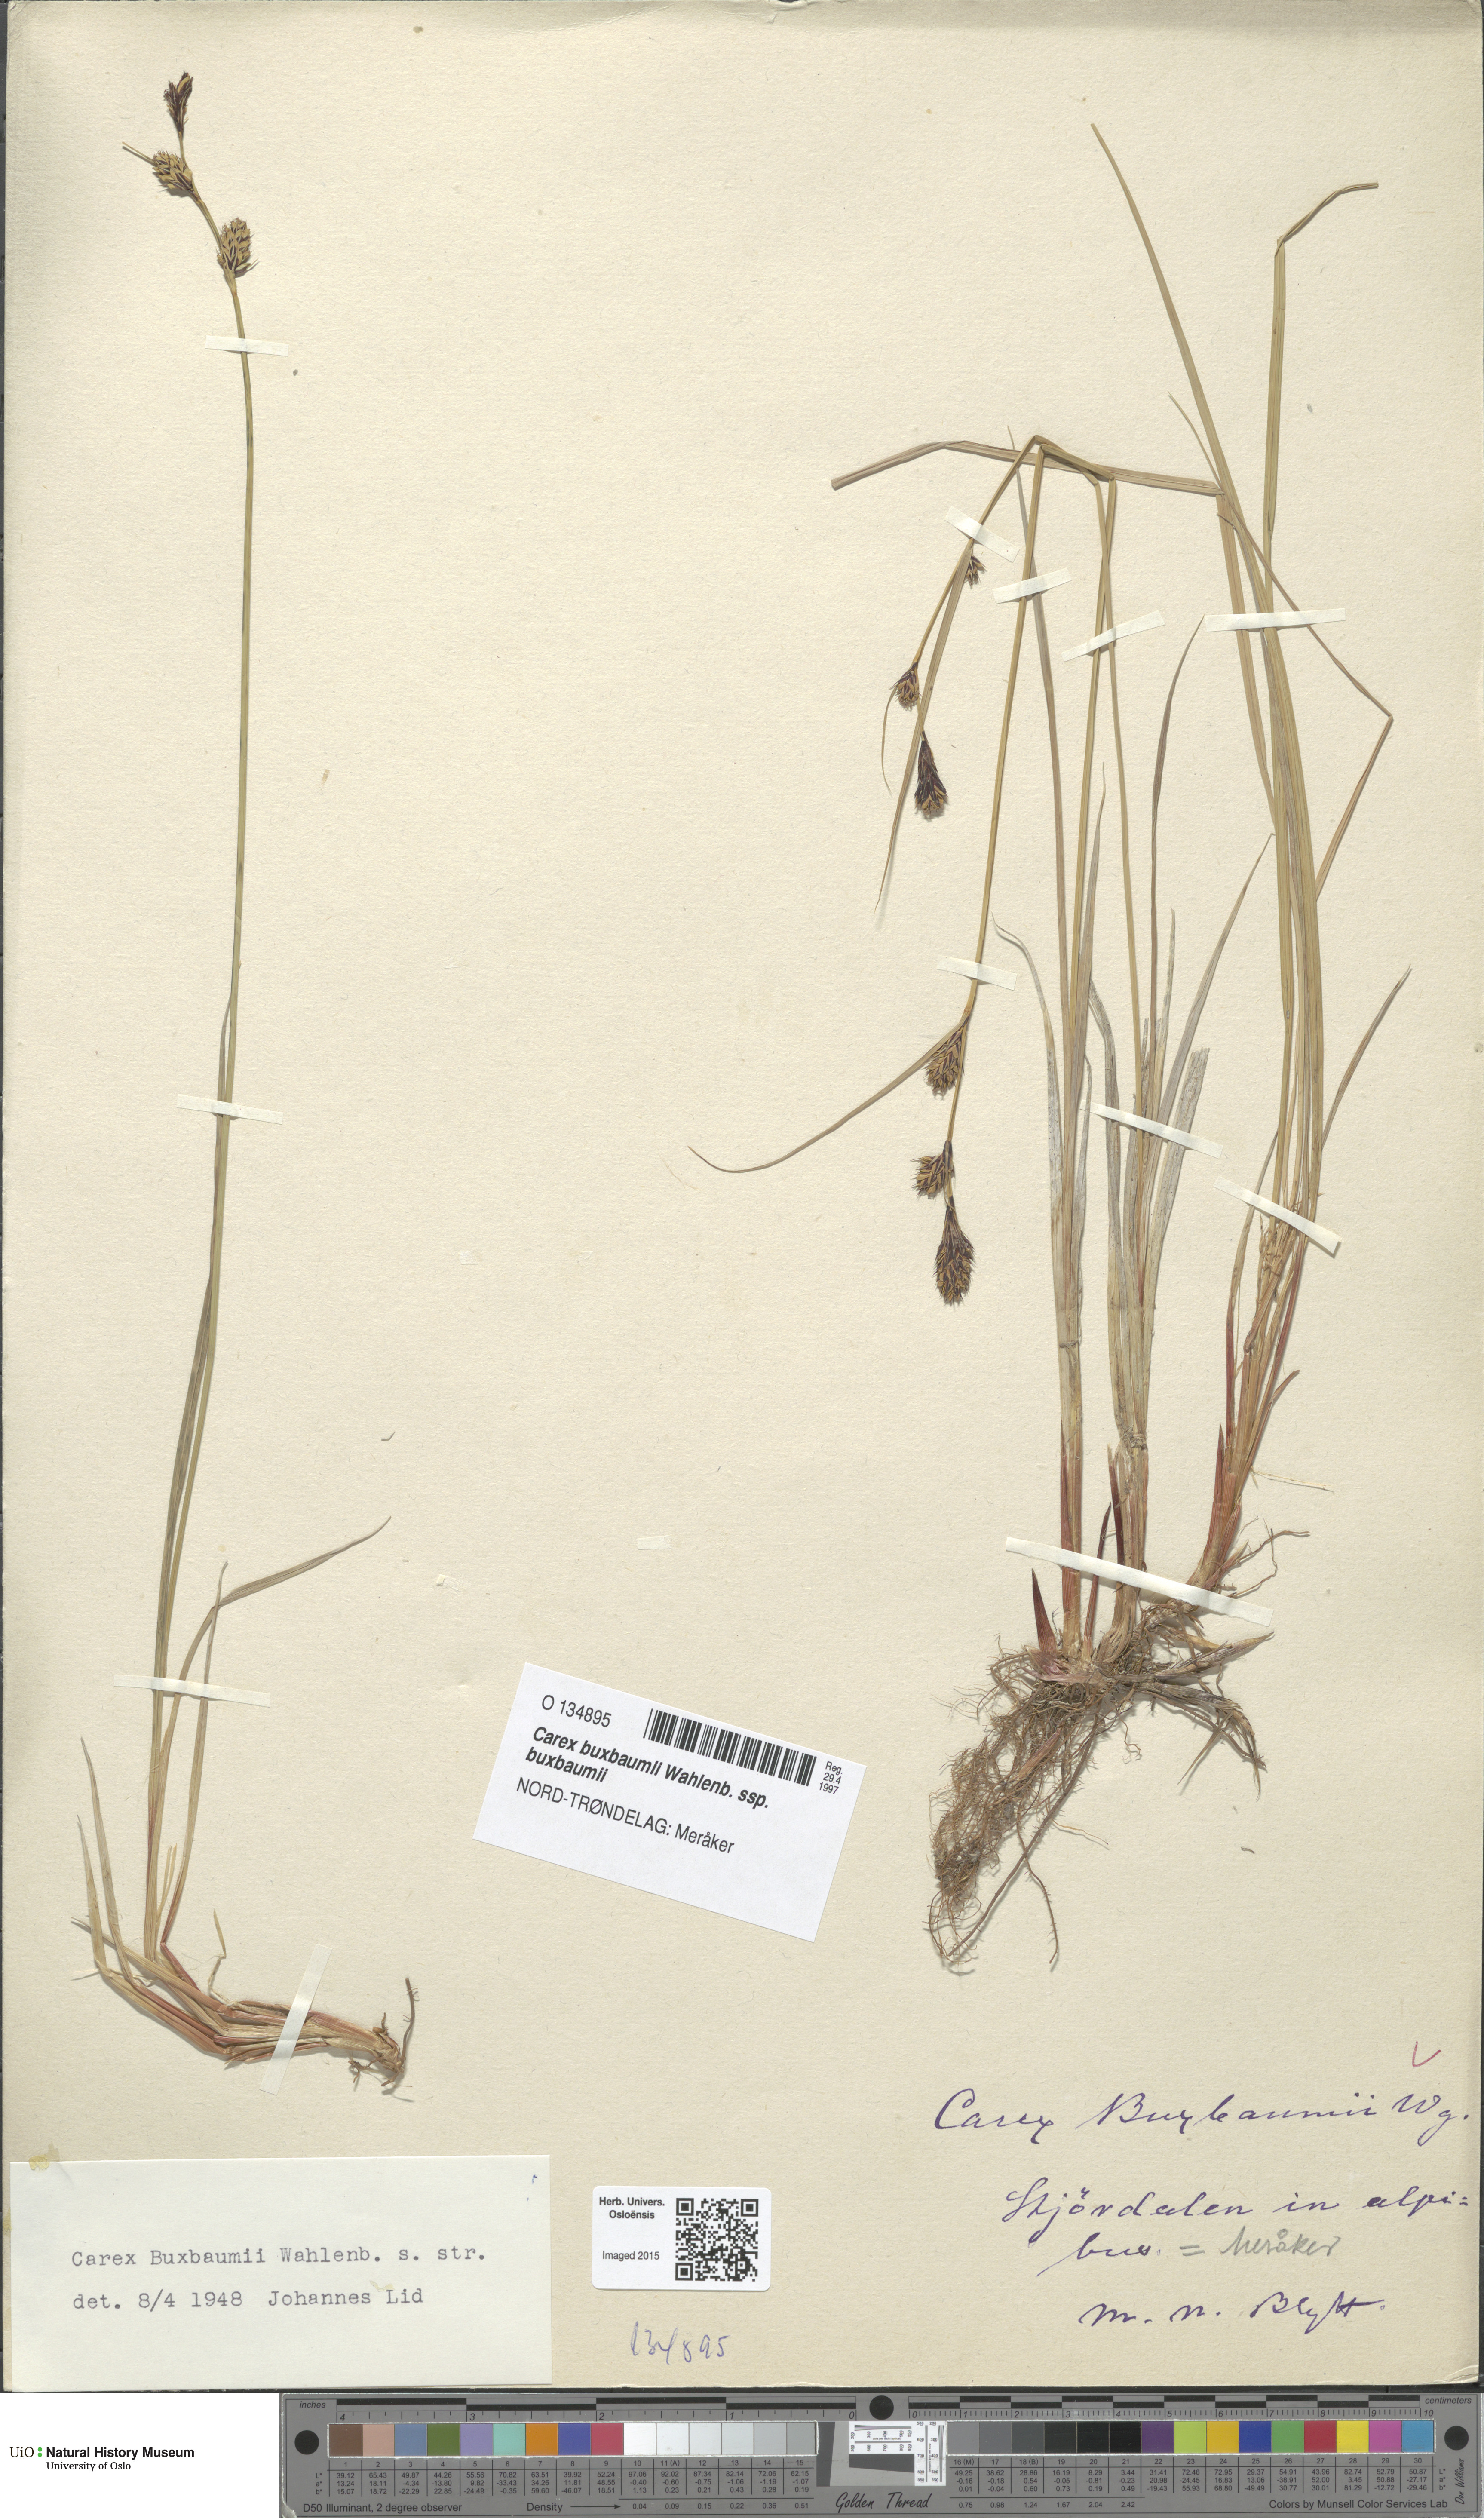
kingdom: Plantae
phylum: Tracheophyta
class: Liliopsida
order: Poales
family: Cyperaceae
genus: Carex
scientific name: Carex buxbaumii
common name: Club sedge
